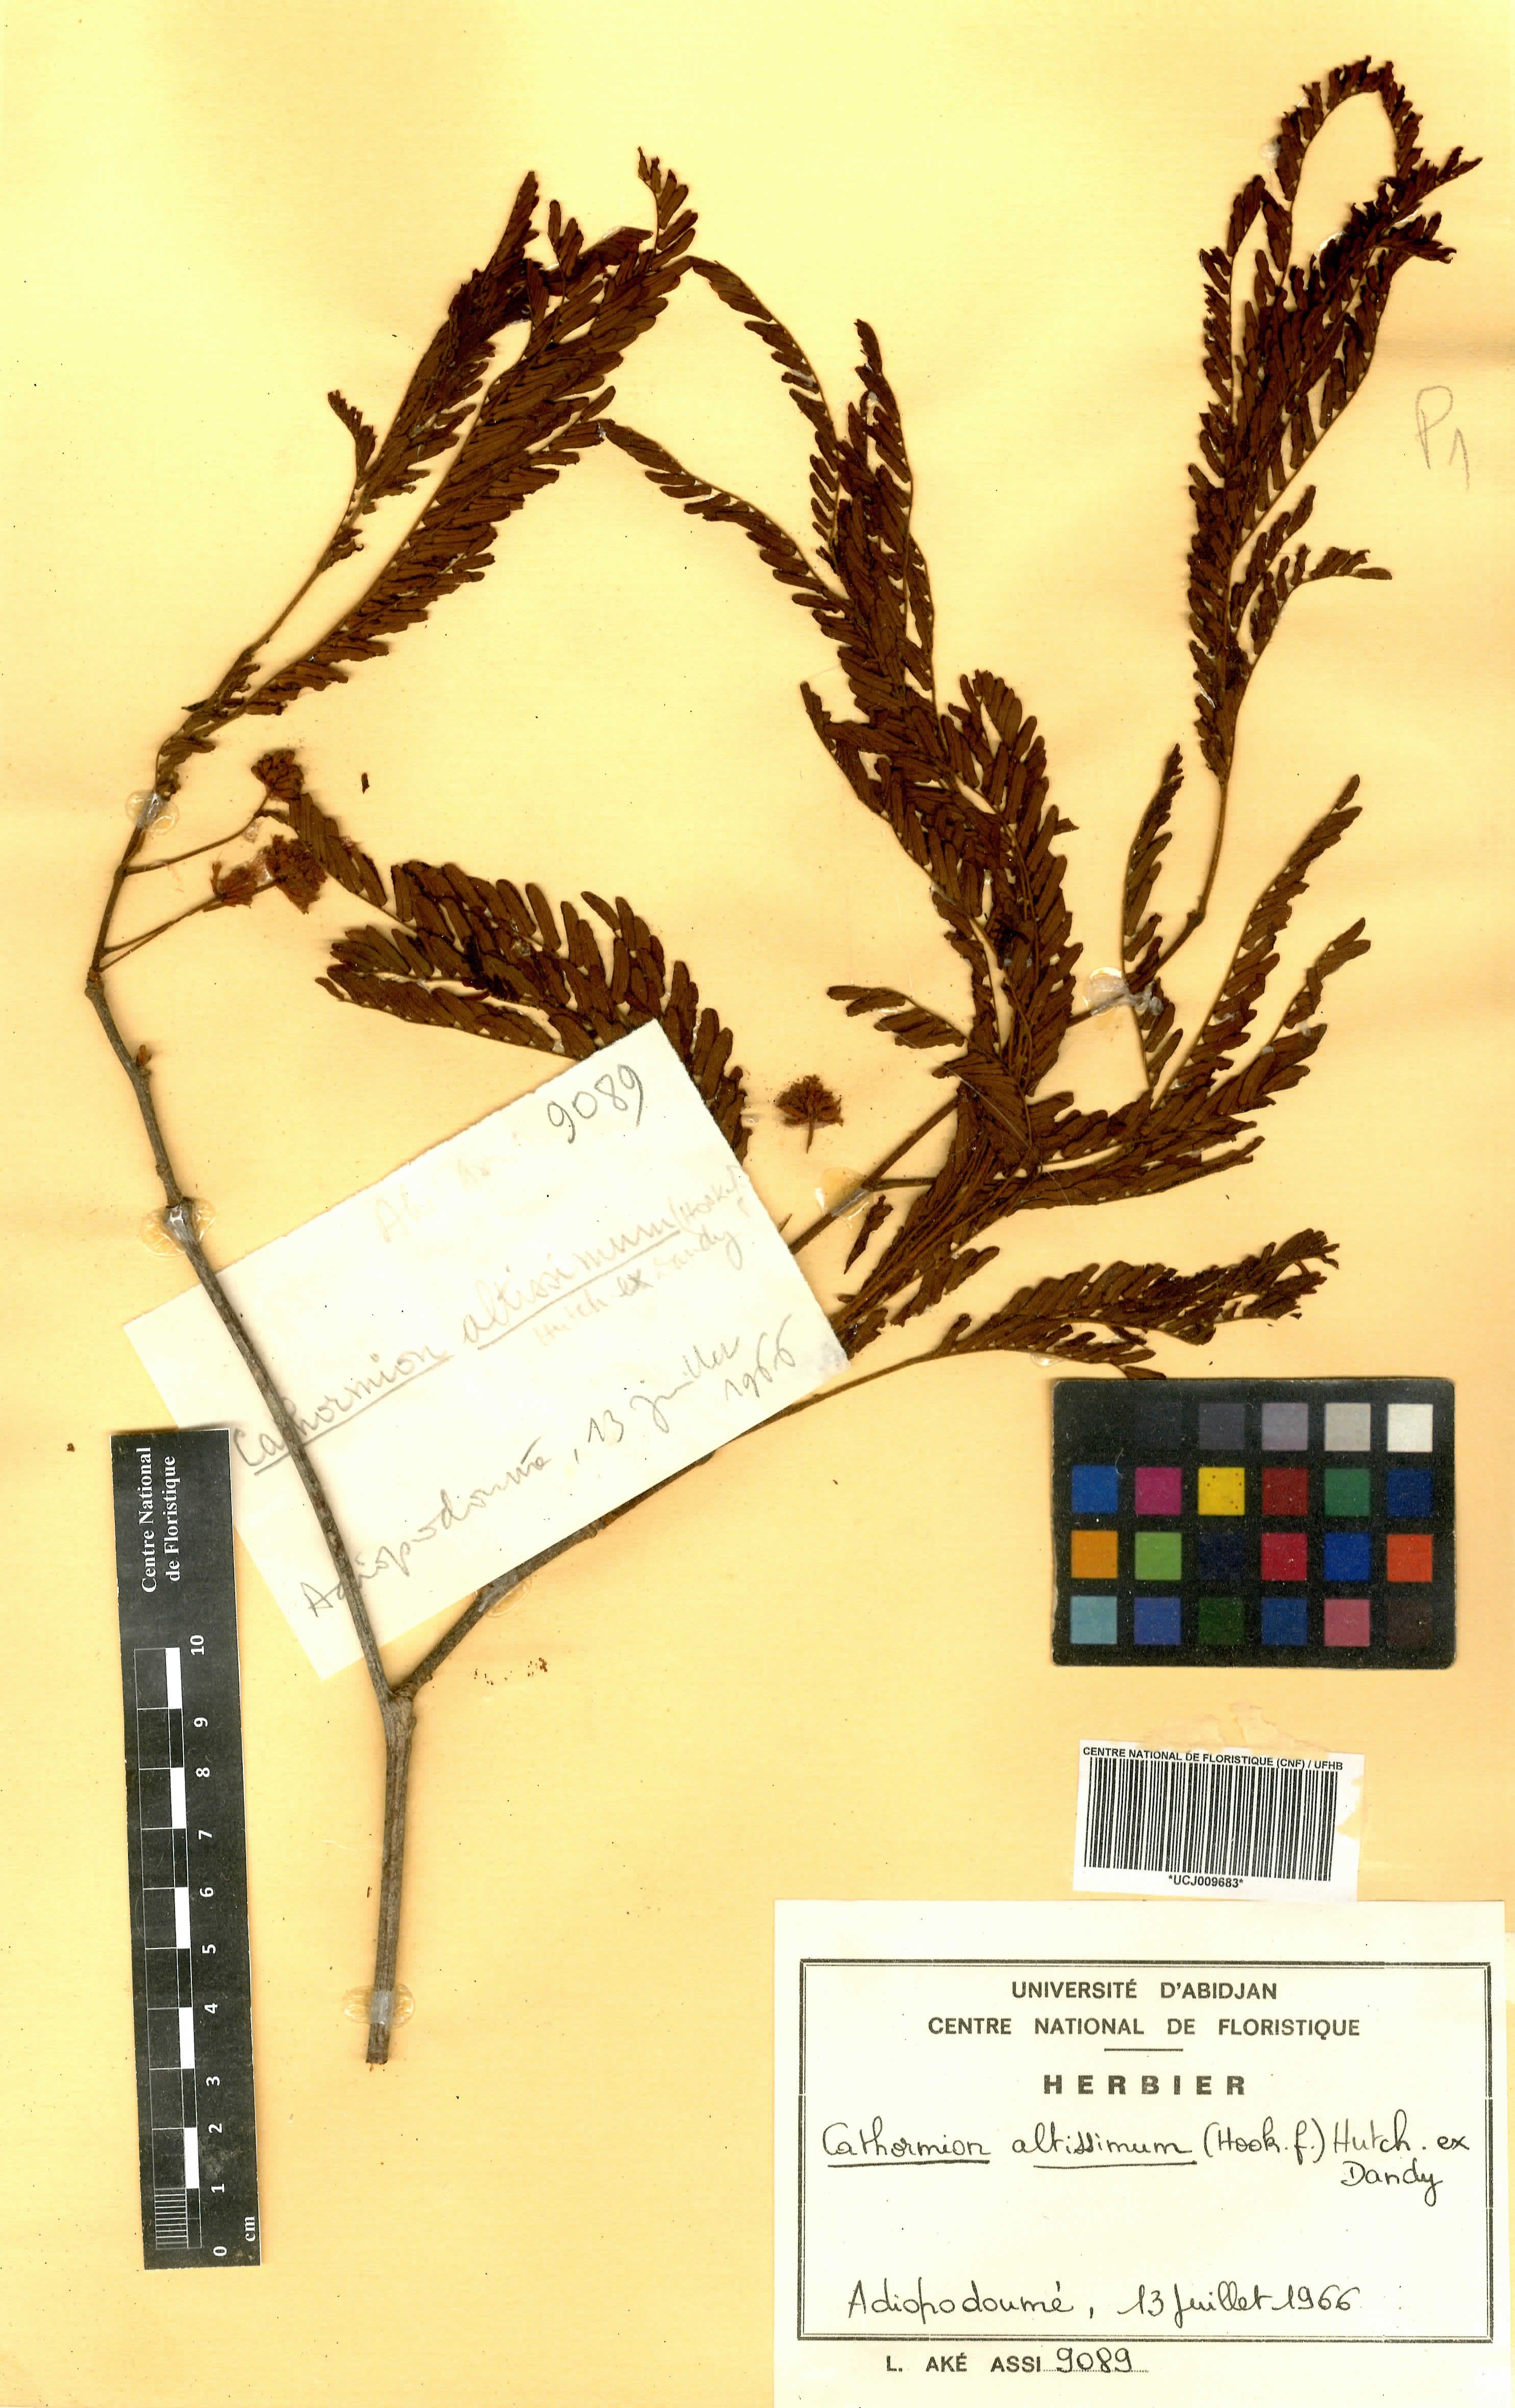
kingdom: Plantae
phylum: Tracheophyta
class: Magnoliopsida
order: Fabales
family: Fabaceae
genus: Albizia
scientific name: Albizia altissima
